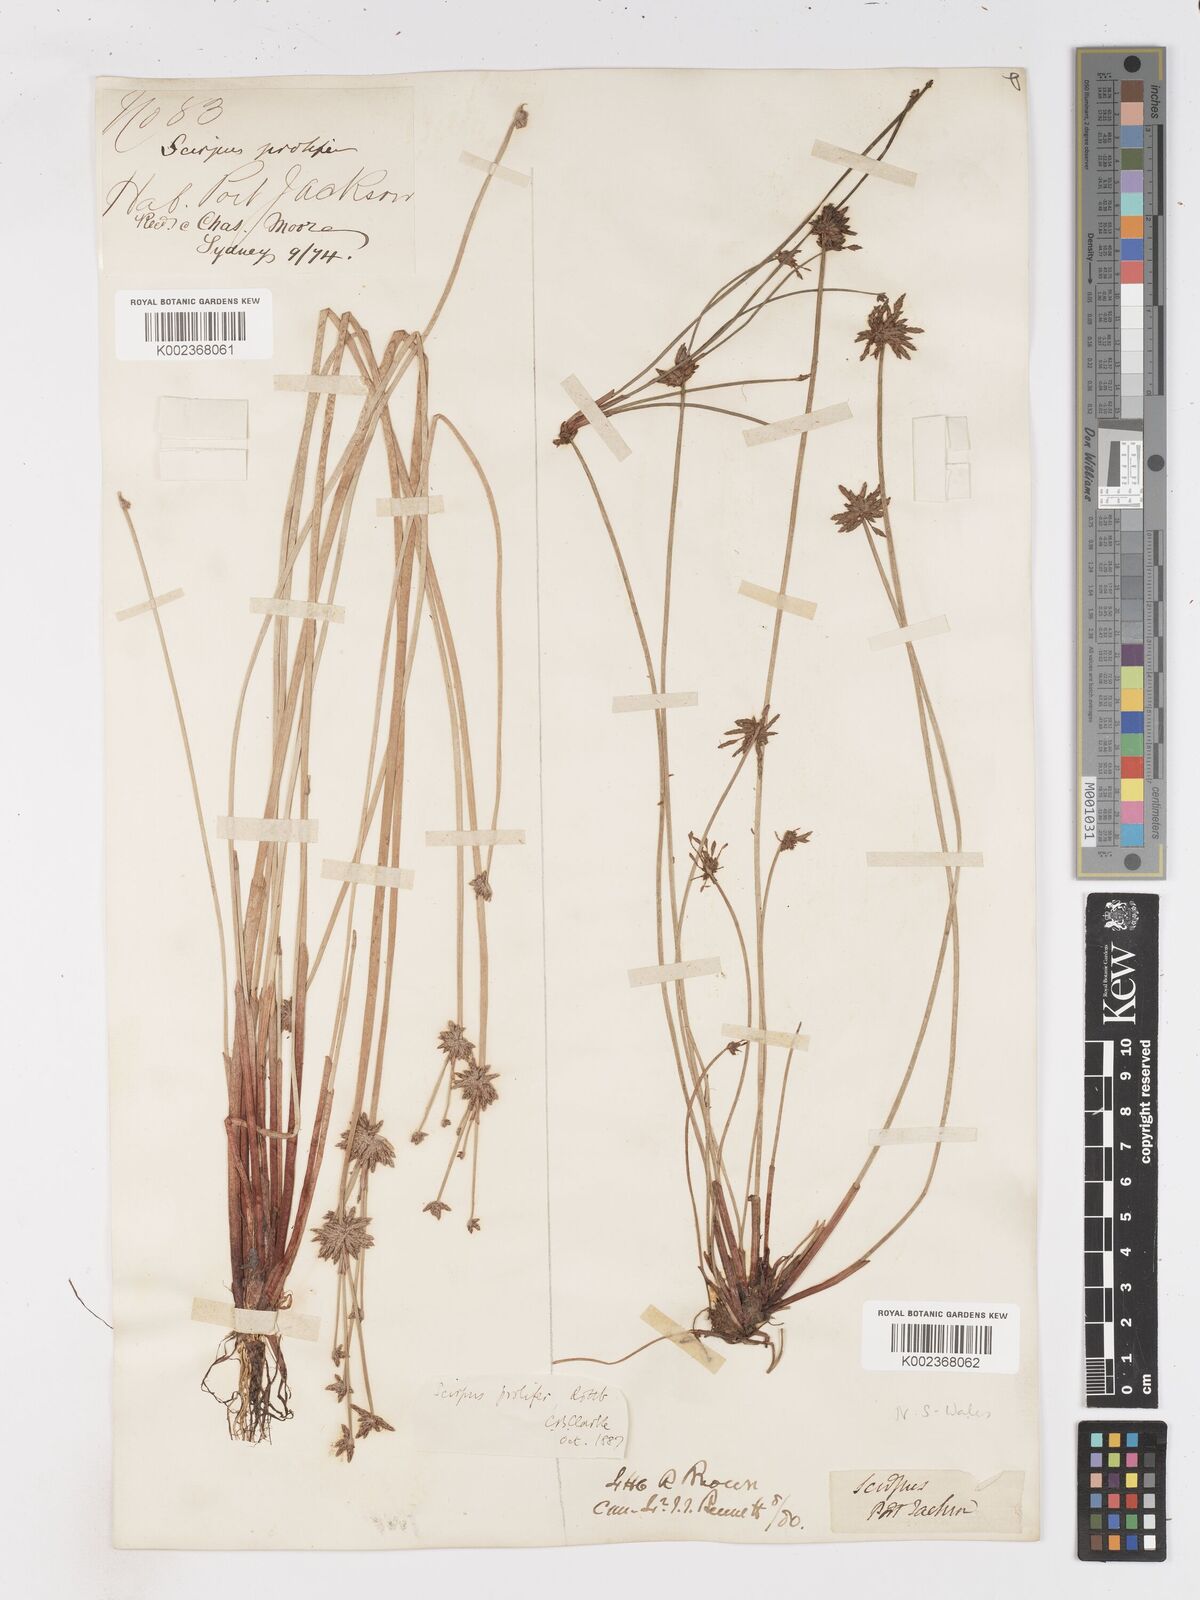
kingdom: Plantae
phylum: Tracheophyta
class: Liliopsida
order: Poales
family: Cyperaceae
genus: Isolepis
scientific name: Isolepis prolifera
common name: Proliferating bulrush
